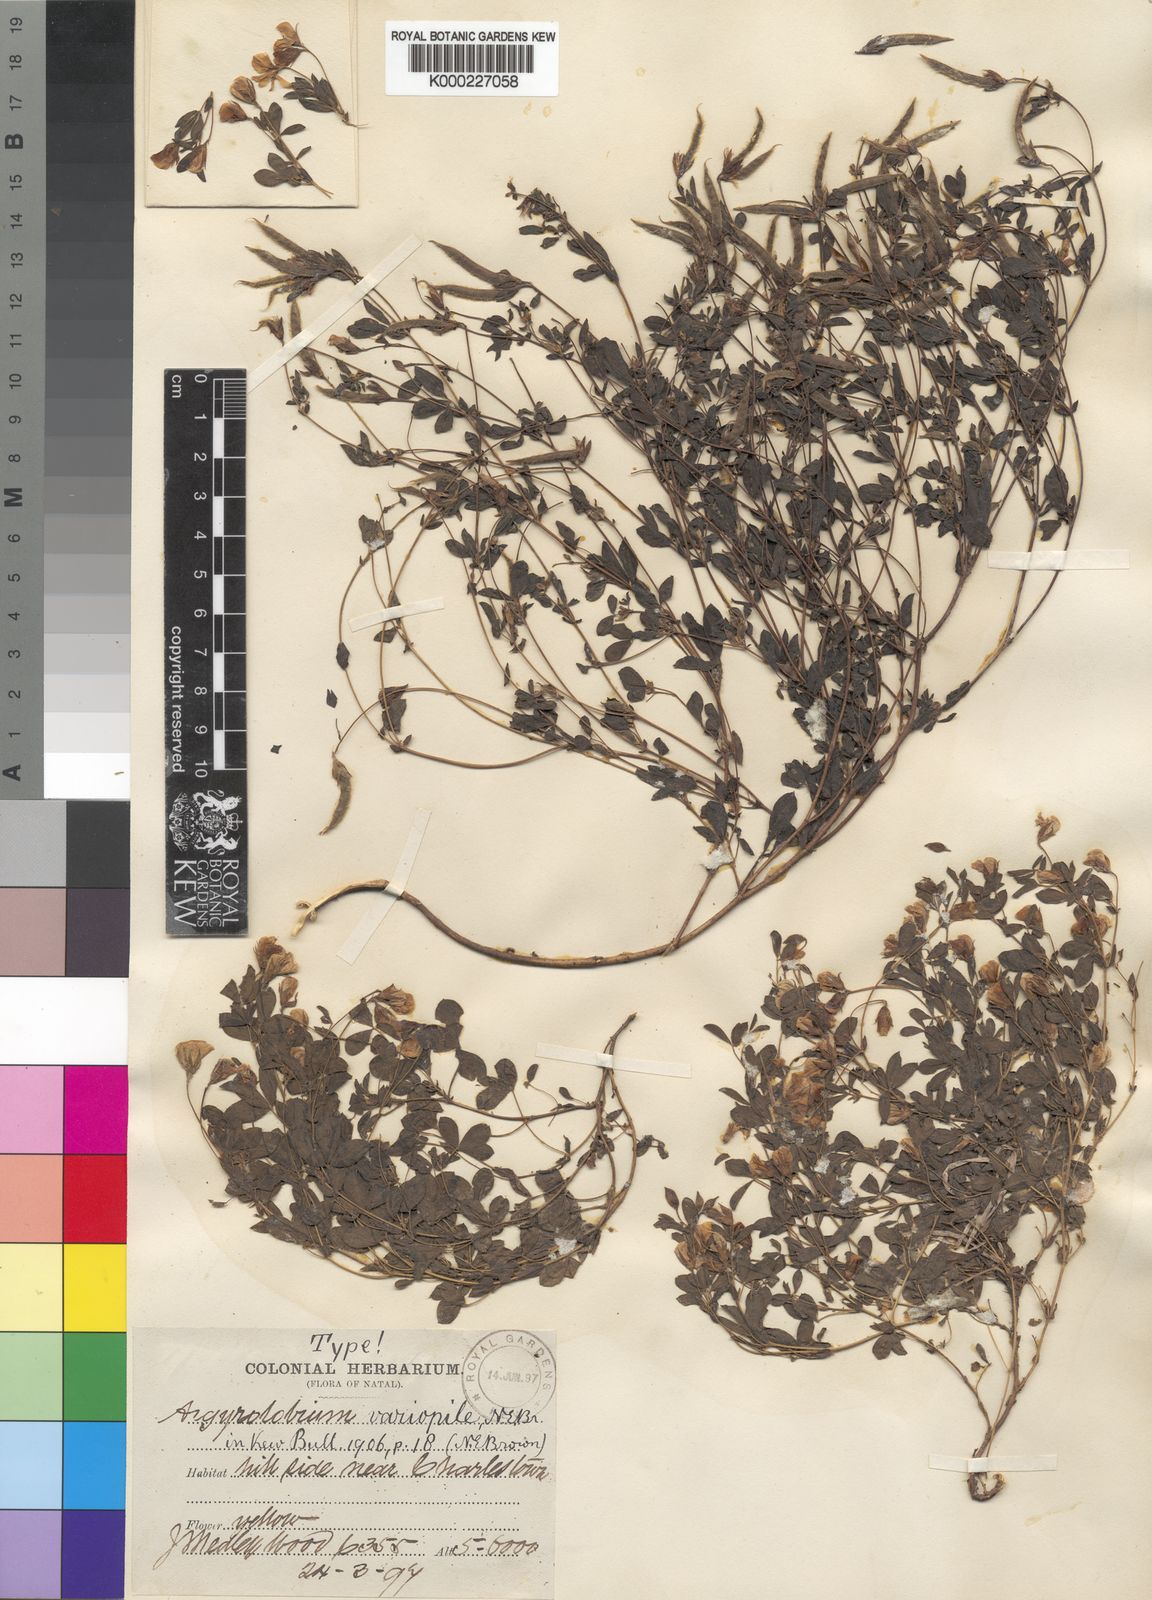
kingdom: Plantae
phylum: Tracheophyta
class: Magnoliopsida
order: Fabales
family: Fabaceae
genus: Argyrolobium
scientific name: Argyrolobium lotoides
